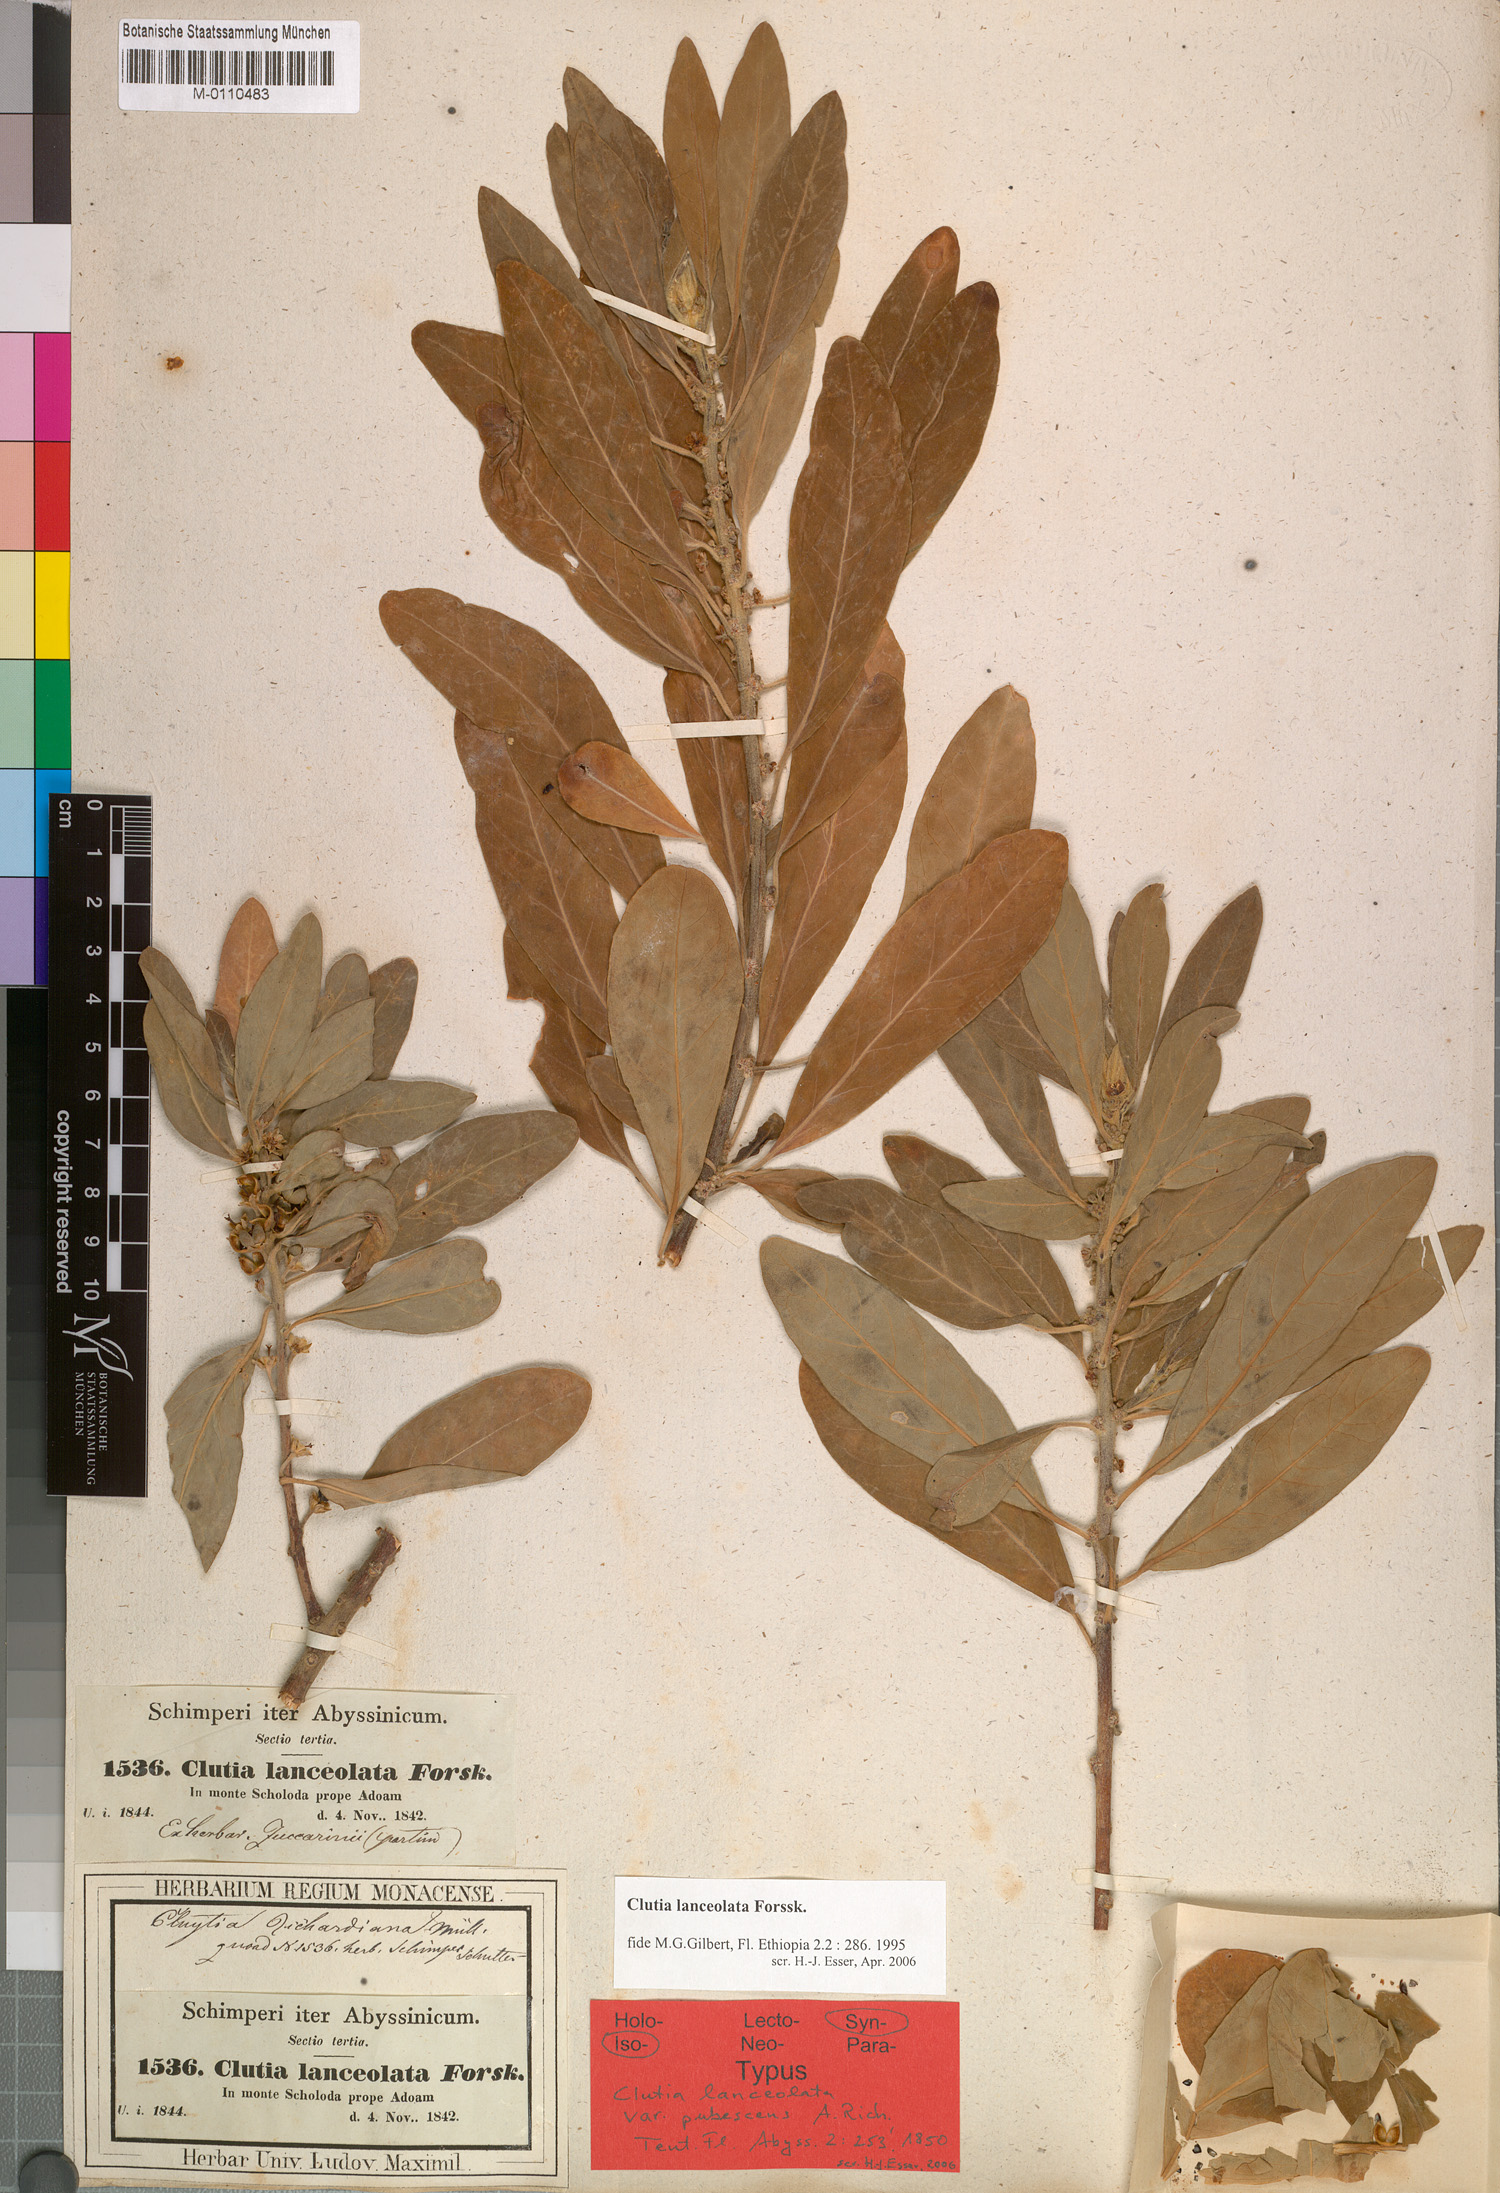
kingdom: Plantae
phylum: Tracheophyta
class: Magnoliopsida
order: Malpighiales
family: Peraceae
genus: Clutia
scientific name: Clutia lanceolata
